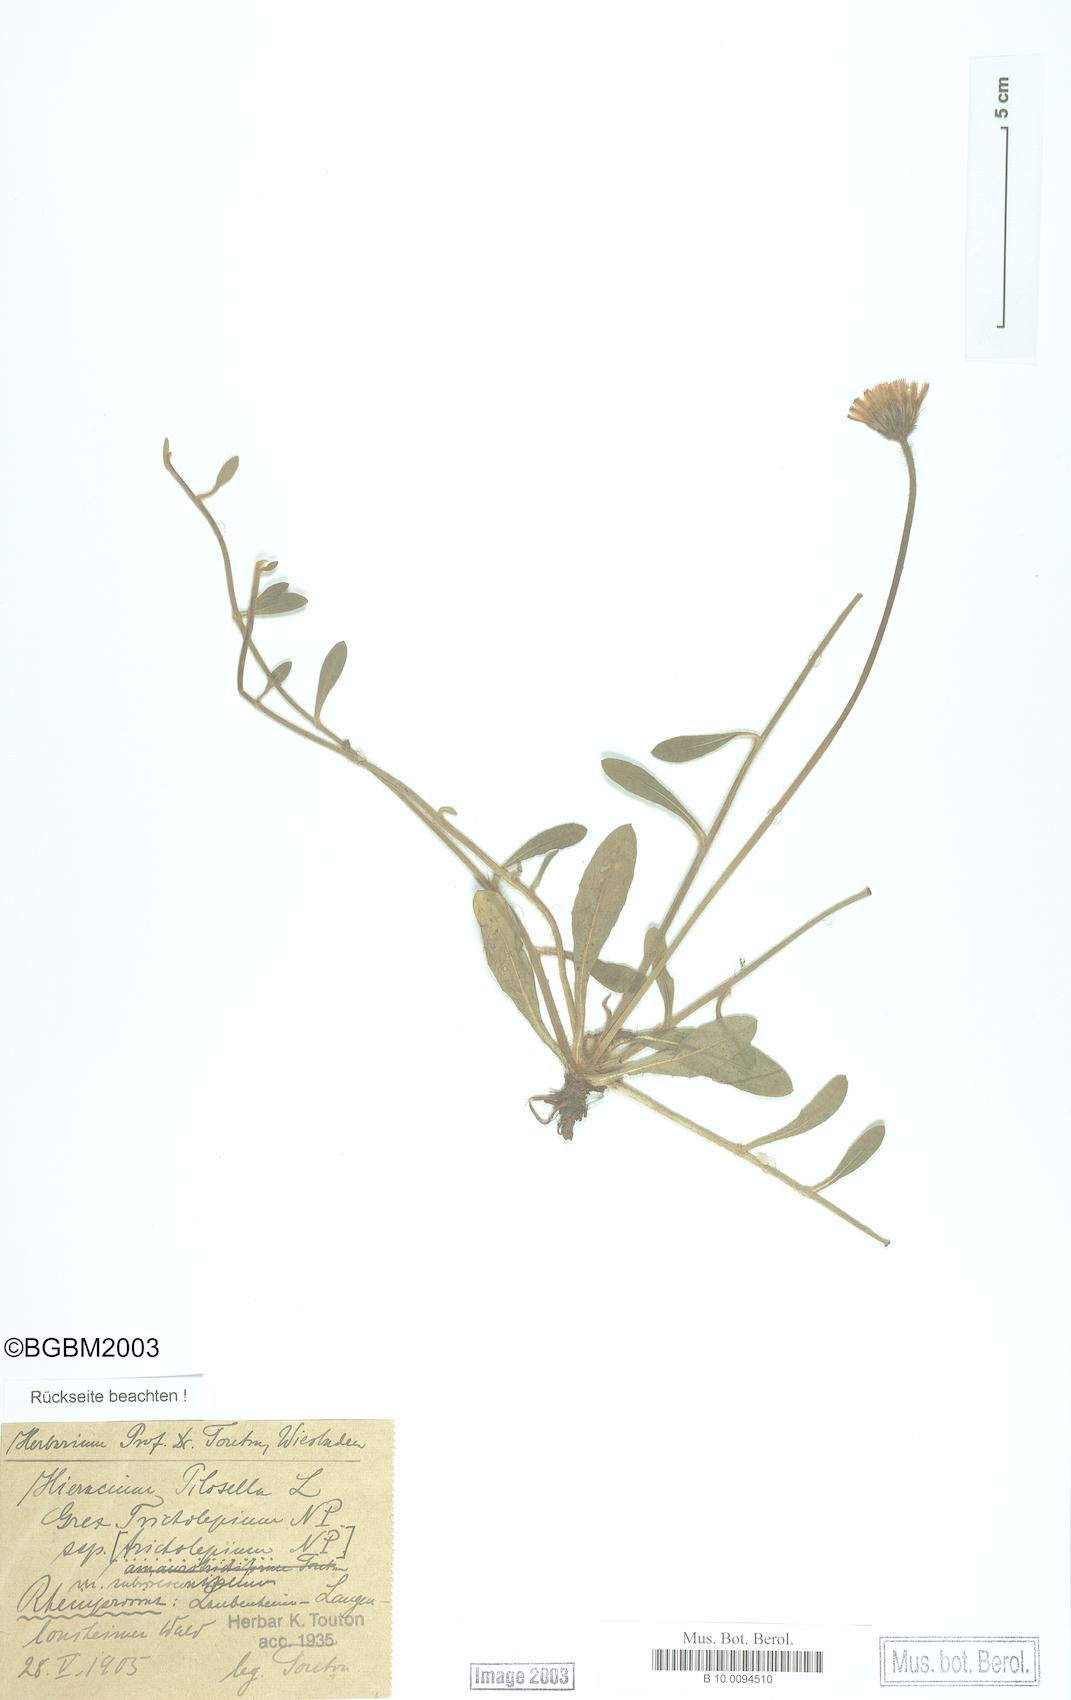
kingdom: Plantae
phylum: Tracheophyta
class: Magnoliopsida
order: Asterales
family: Asteraceae
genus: Pilosella
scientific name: Pilosella officinarum
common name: Mouse-ear hawkweed
